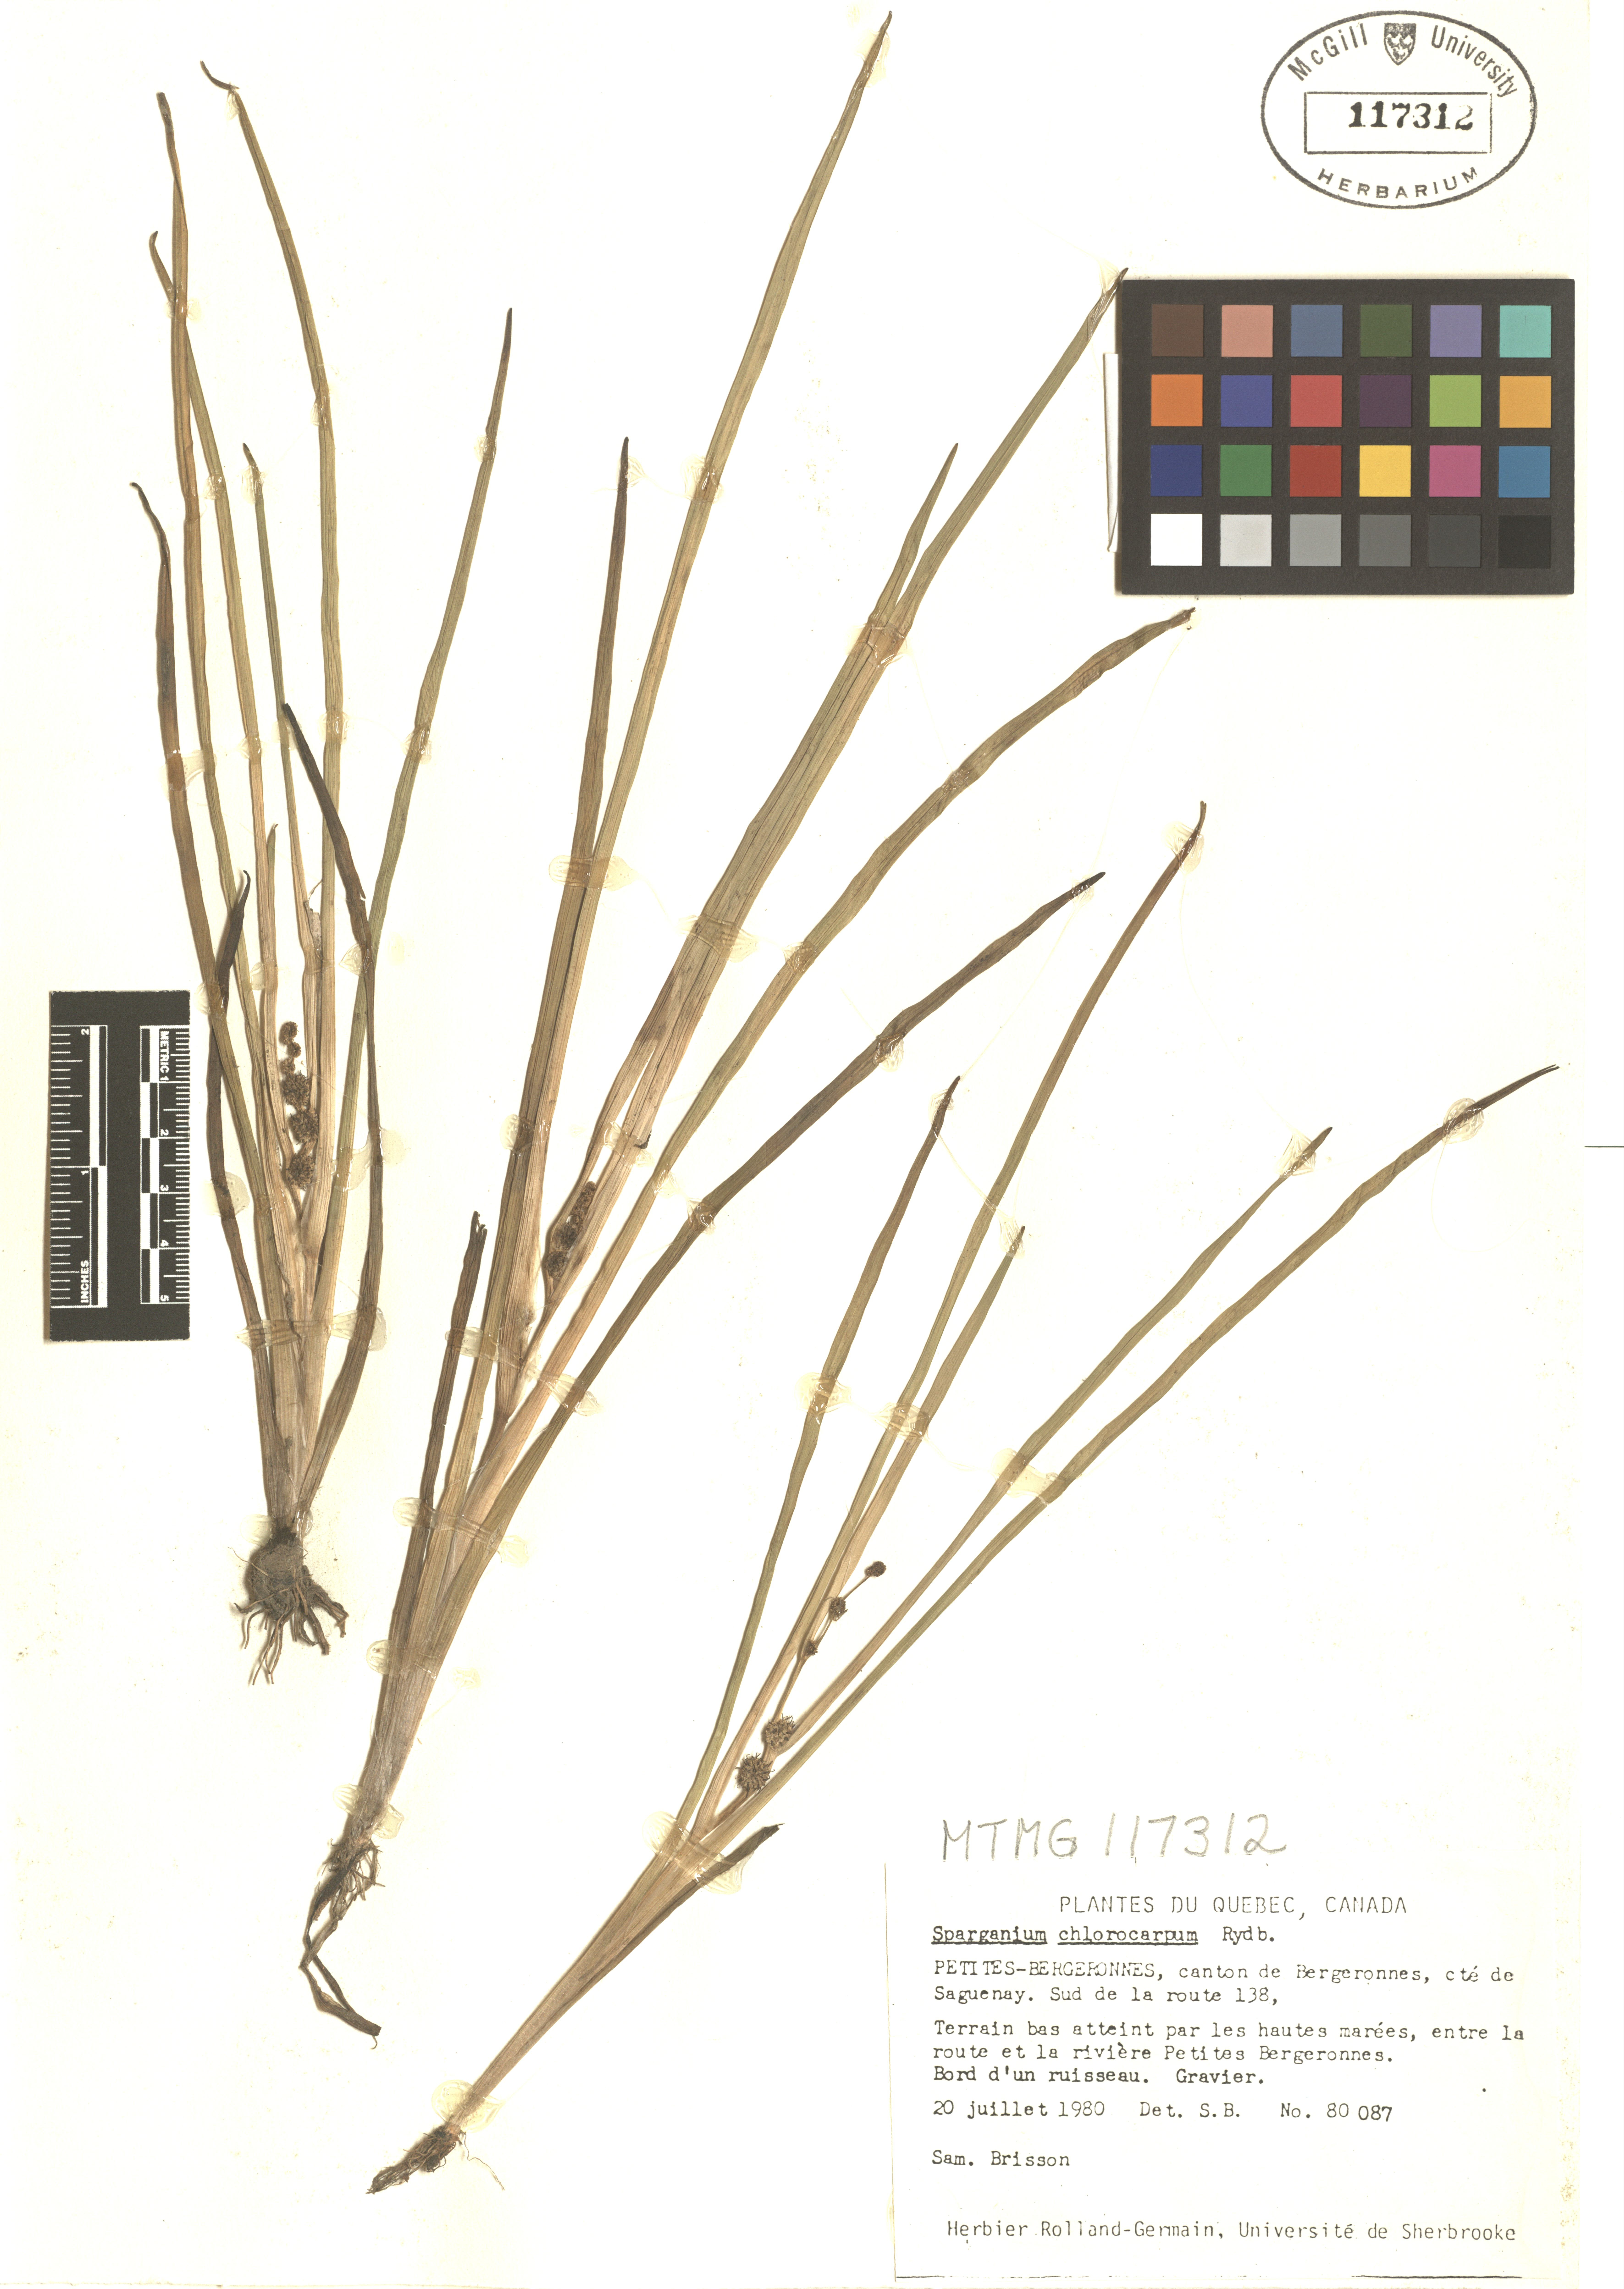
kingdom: Plantae
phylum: Tracheophyta
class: Liliopsida
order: Poales
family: Typhaceae
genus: Sparganium
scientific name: Sparganium emersum
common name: Unbranched bur-reed
